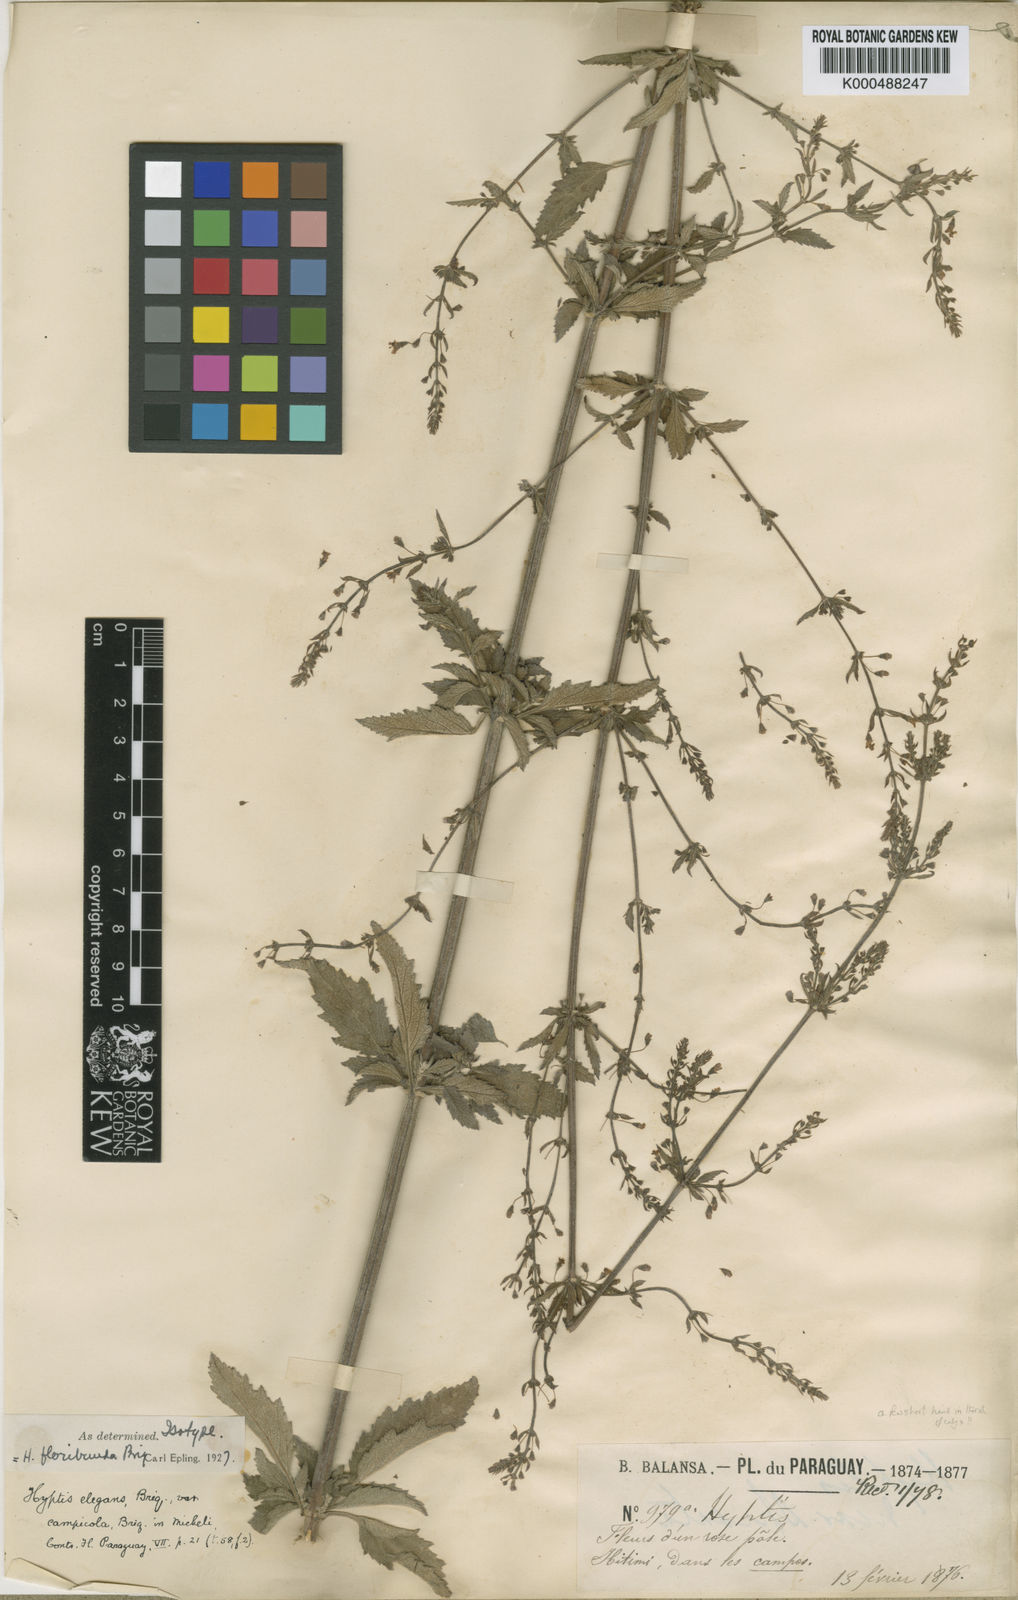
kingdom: Plantae
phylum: Tracheophyta
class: Magnoliopsida
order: Lamiales
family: Lamiaceae
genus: Condea
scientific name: Condea floribunda
